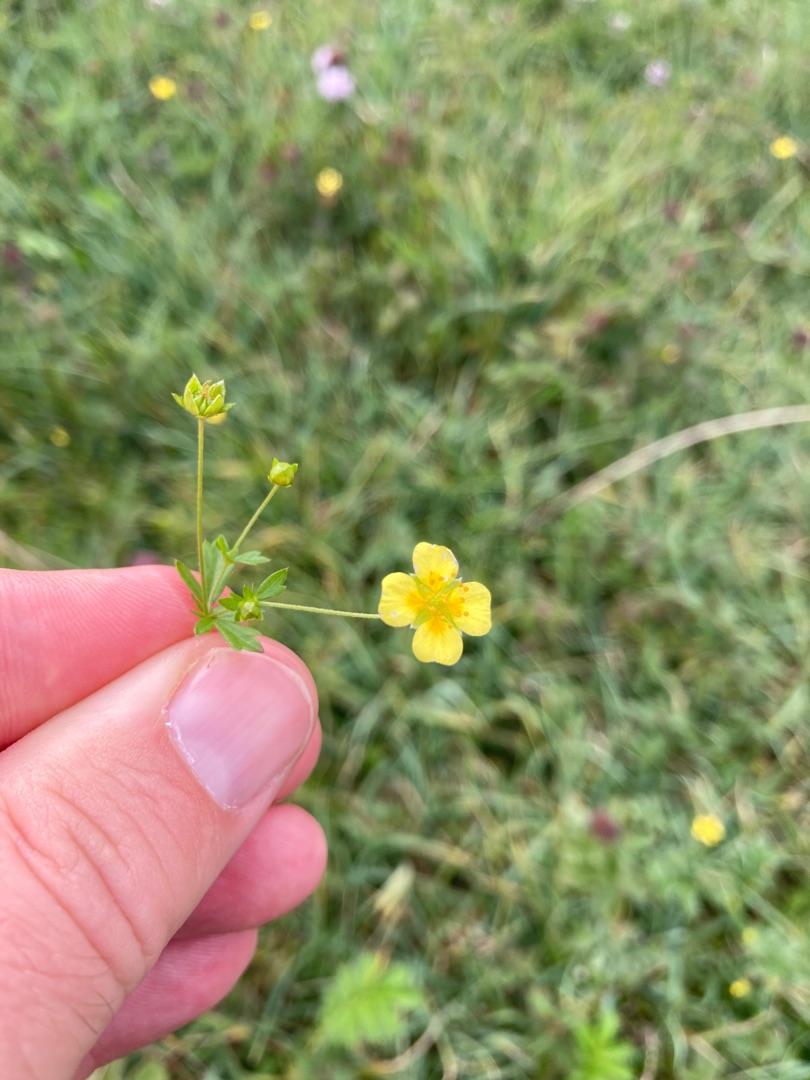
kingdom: Plantae
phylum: Tracheophyta
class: Magnoliopsida
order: Rosales
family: Rosaceae
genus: Potentilla
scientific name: Potentilla erecta
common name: Tormentil
